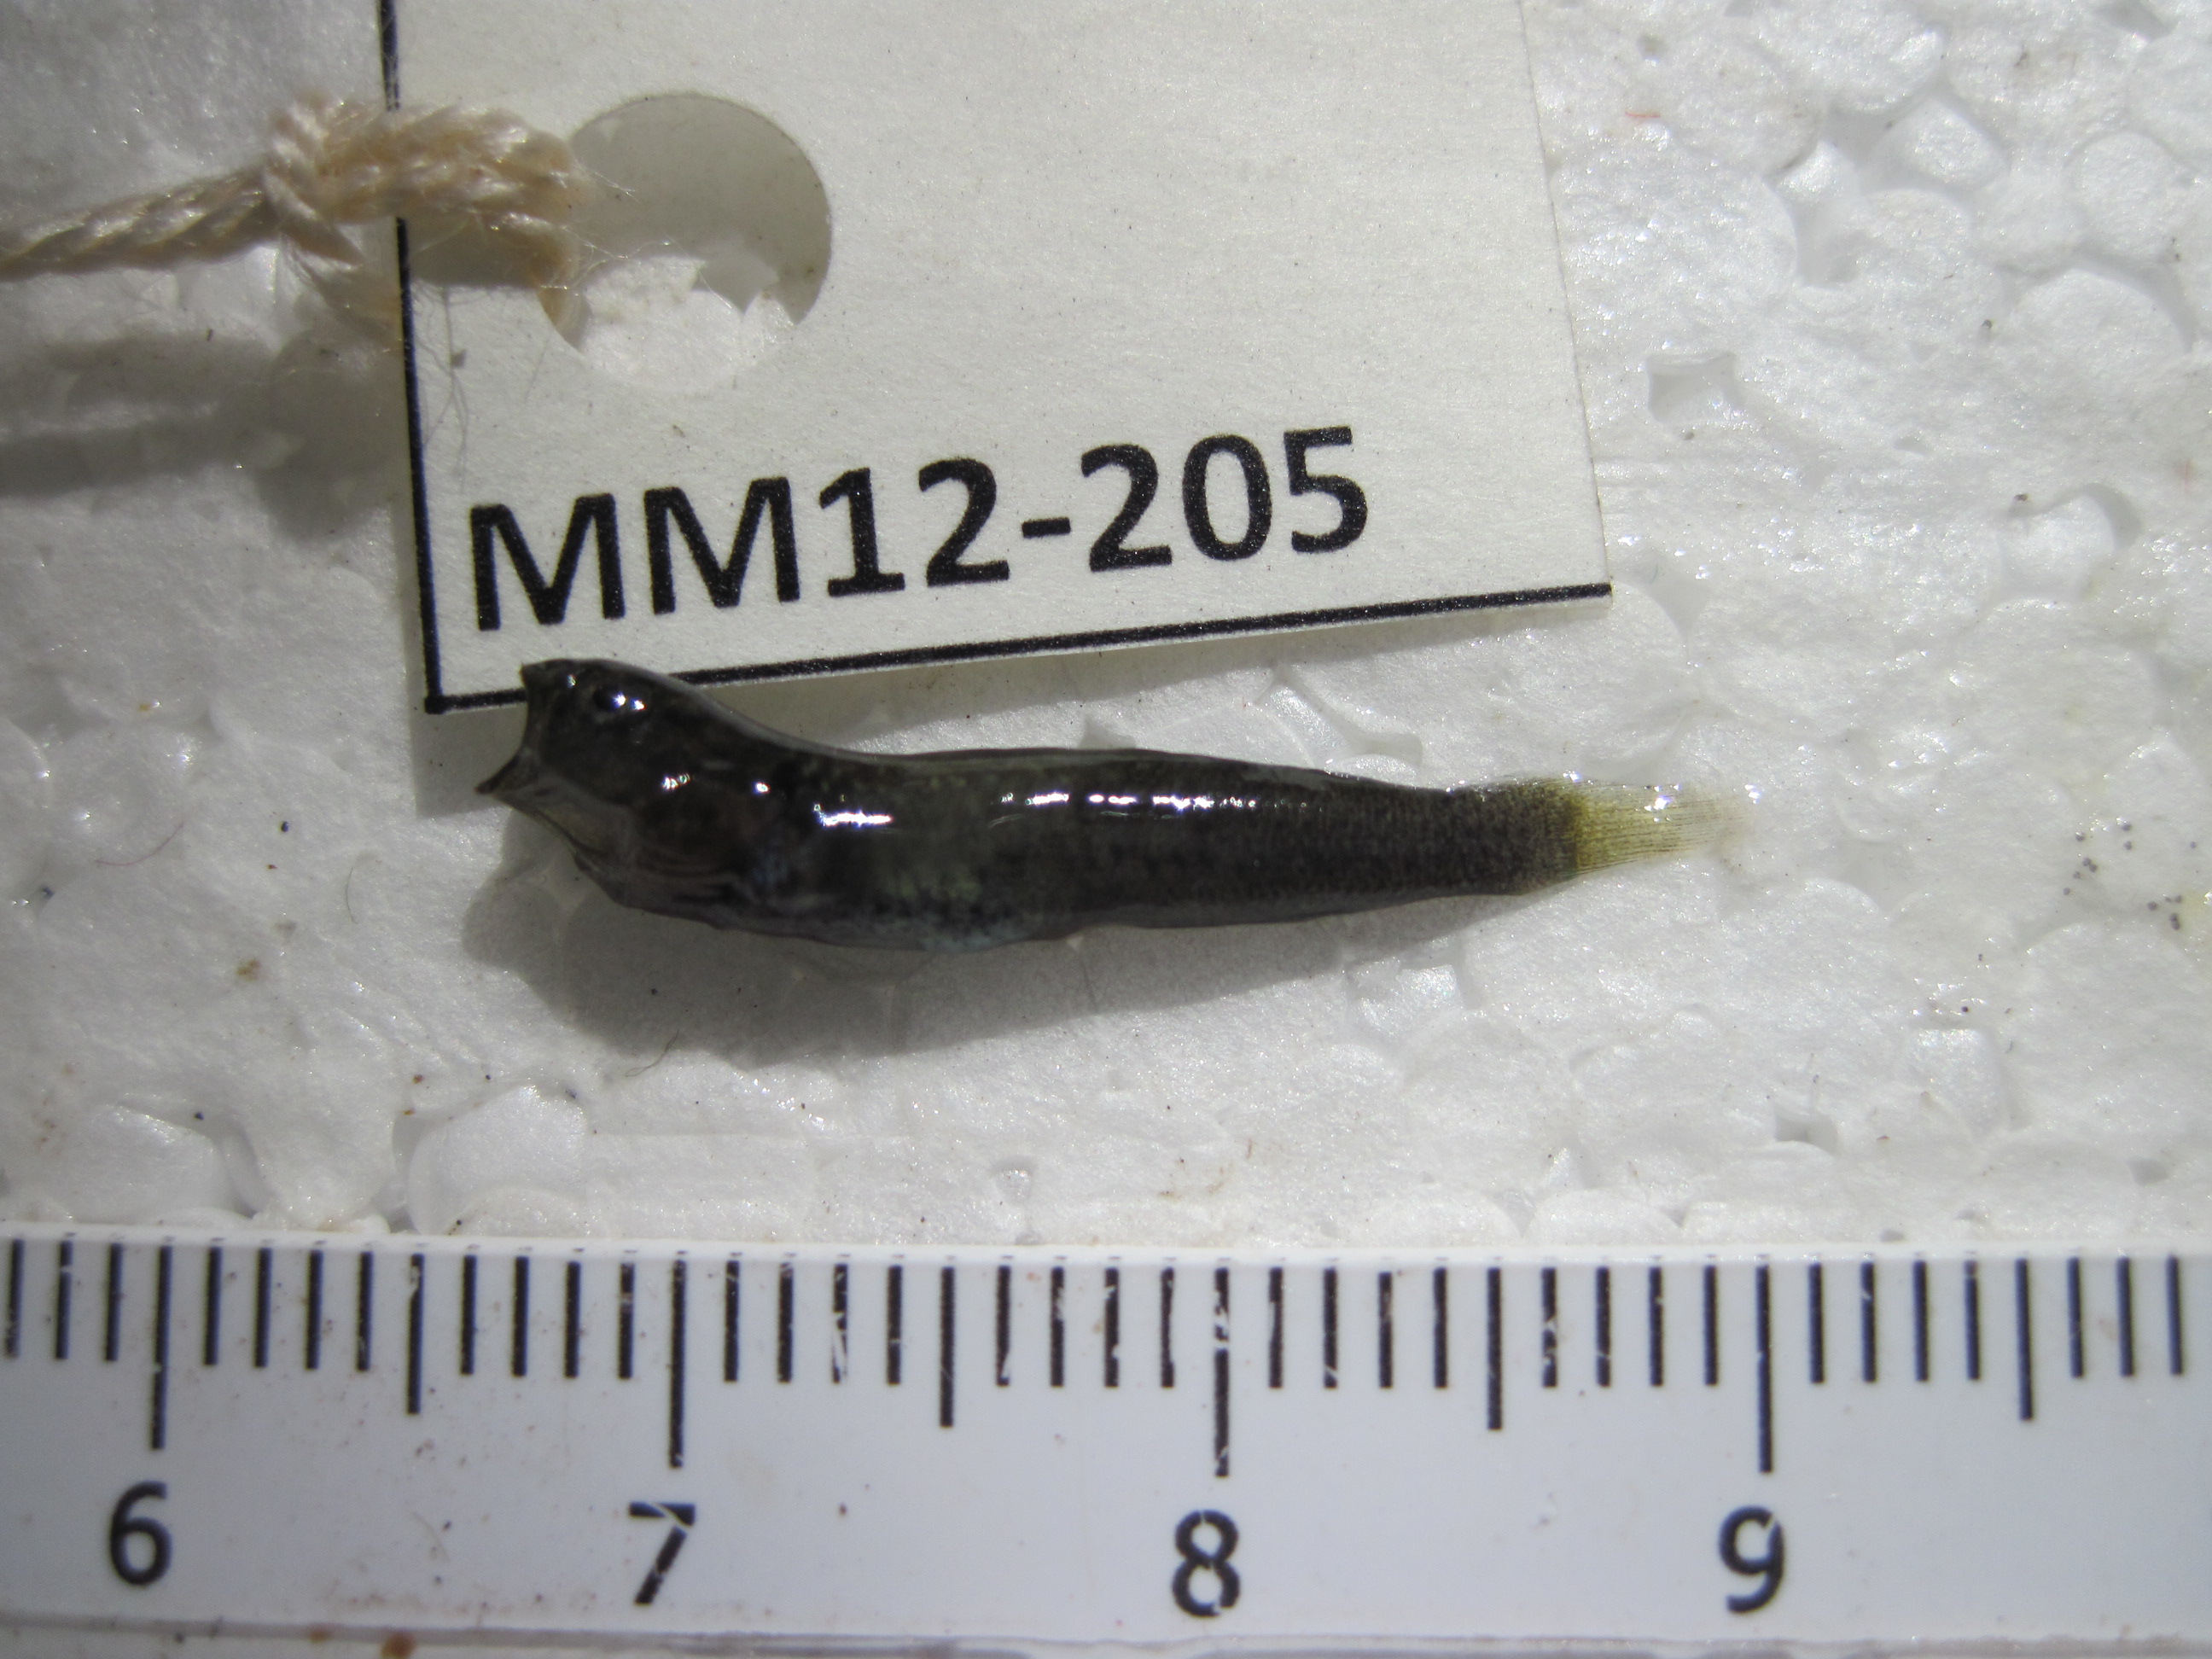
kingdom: Animalia
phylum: Chordata
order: Perciformes
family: Clinidae
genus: Climacoporus
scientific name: Climacoporus
